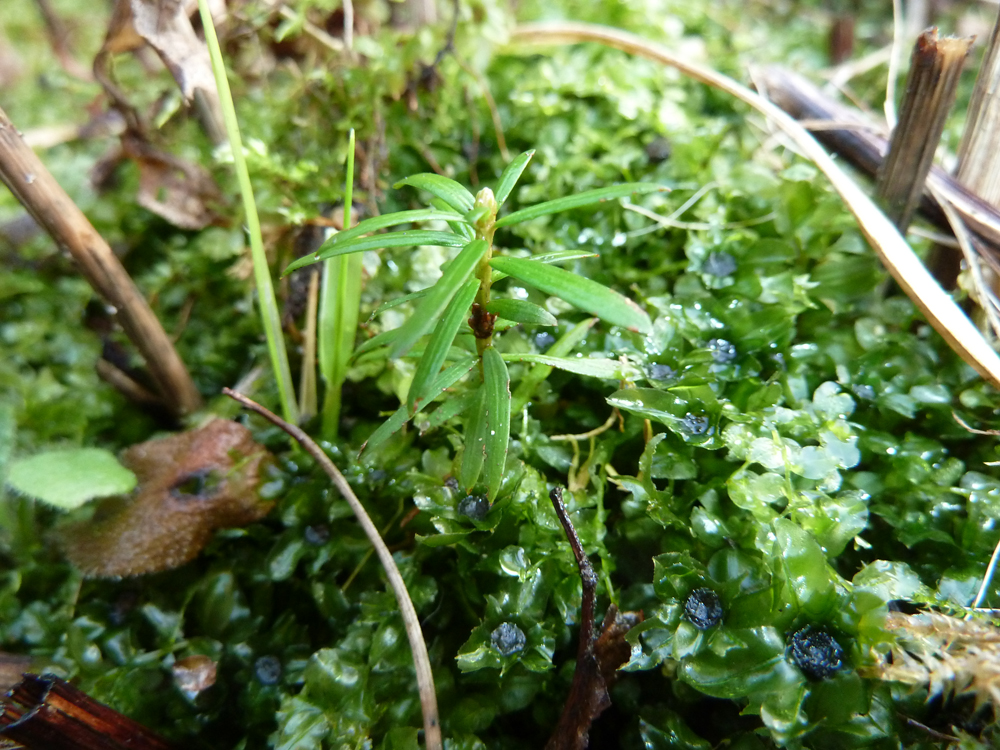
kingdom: Plantae
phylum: Tracheophyta
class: Pinopsida
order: Pinales
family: Taxaceae
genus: Taxus
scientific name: Taxus baccata
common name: Yew
